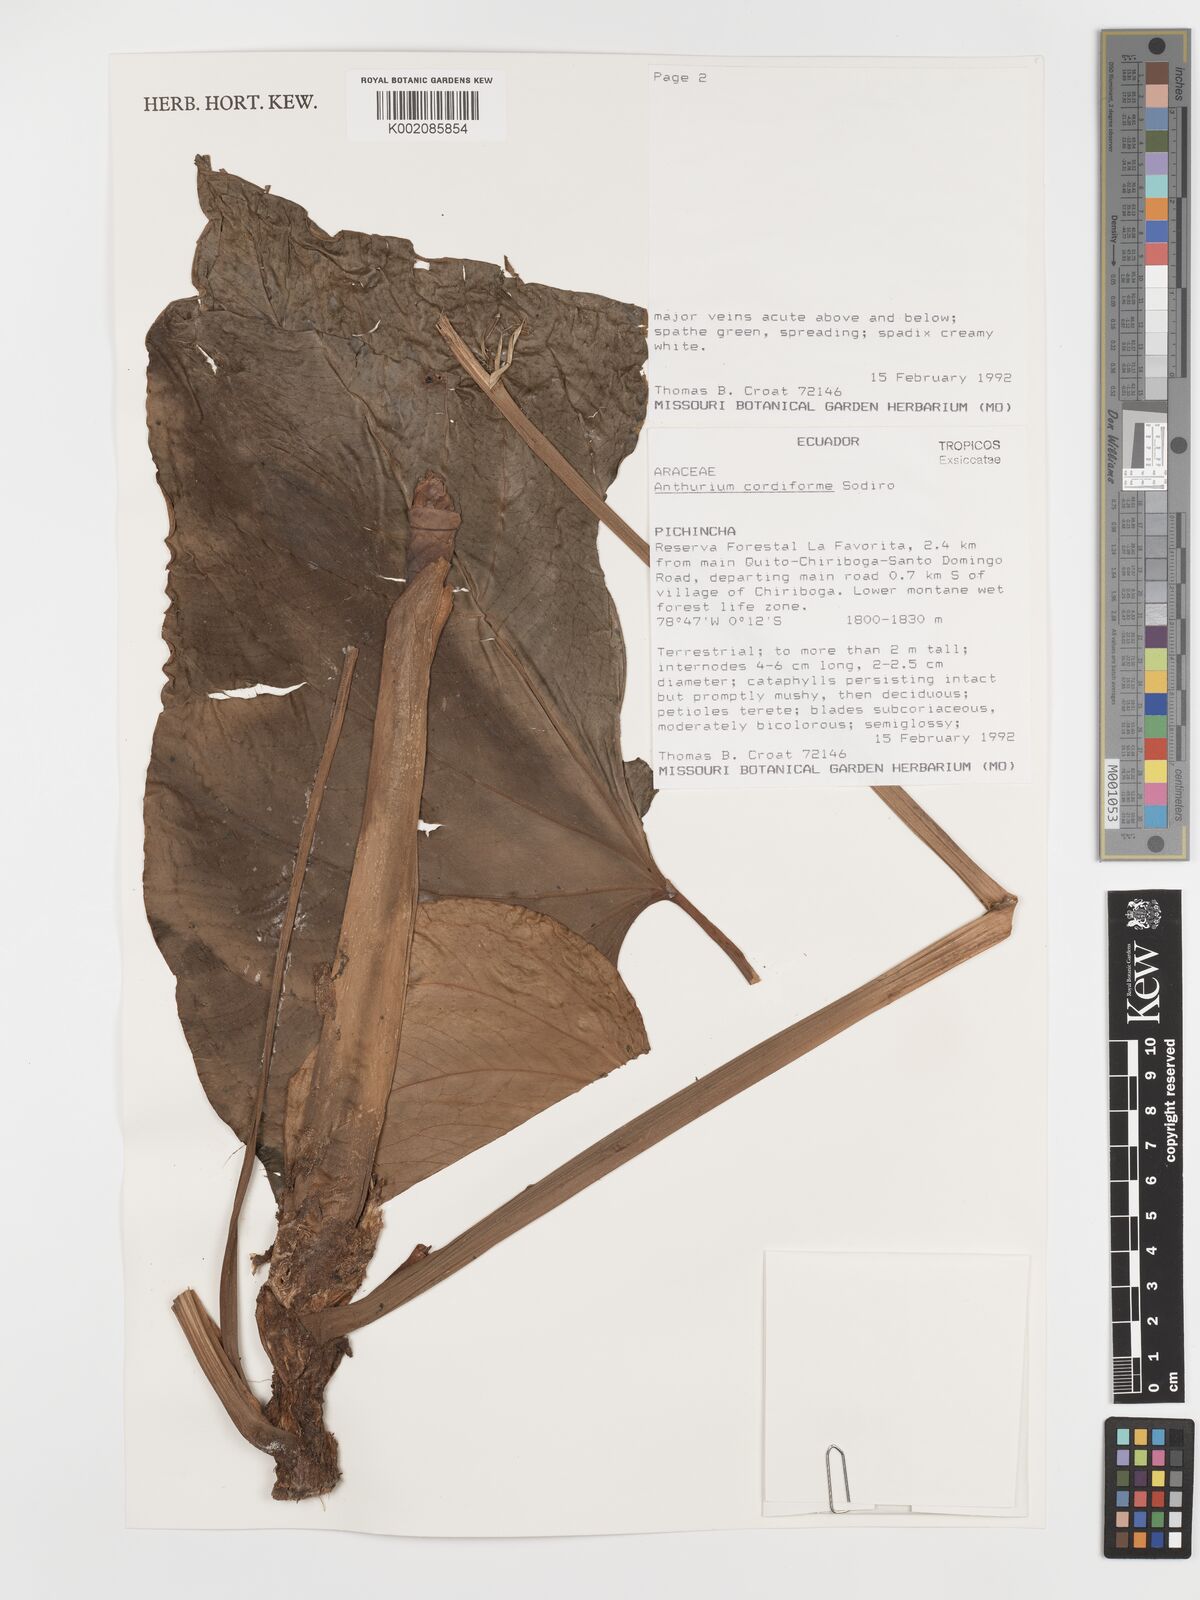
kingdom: Plantae
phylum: Tracheophyta
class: Liliopsida
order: Alismatales
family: Araceae
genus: Anthurium
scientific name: Anthurium cordiforme
